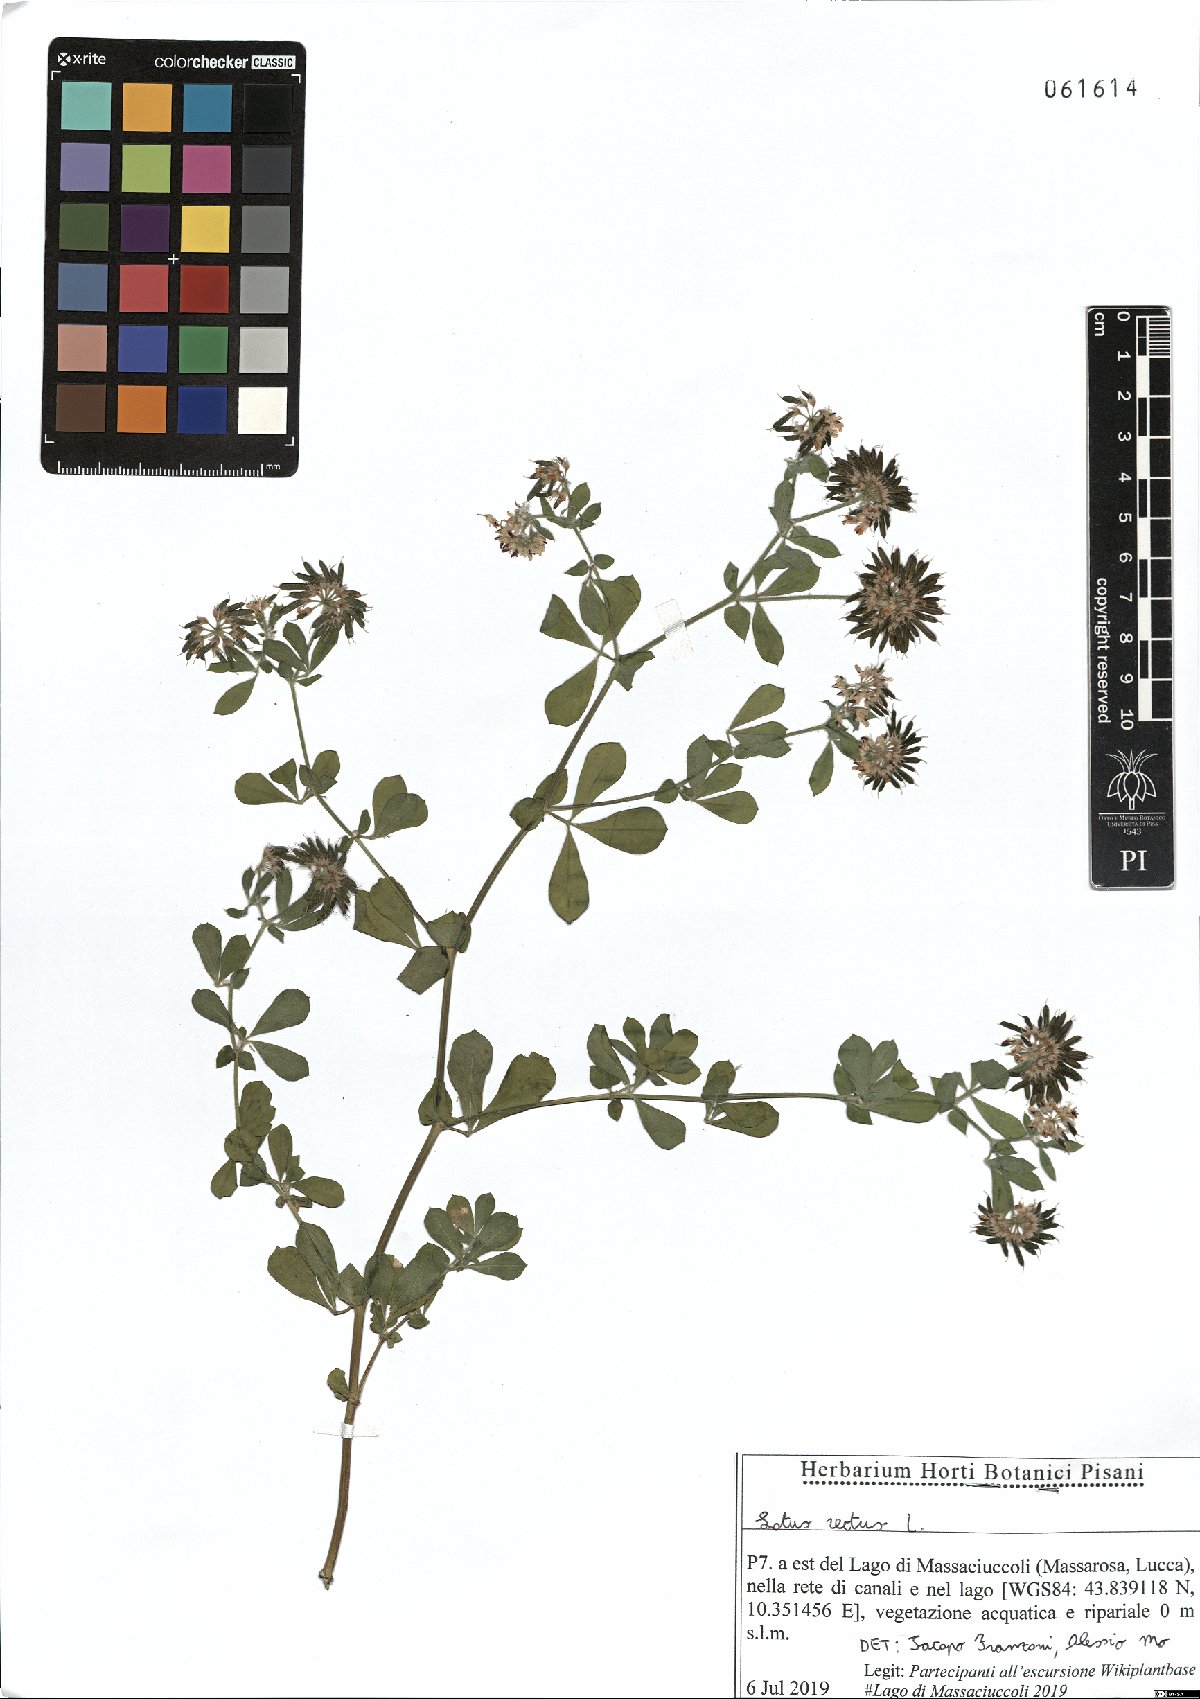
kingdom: Plantae
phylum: Tracheophyta
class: Magnoliopsida
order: Fabales
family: Fabaceae
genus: Lotus
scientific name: Lotus rectus
